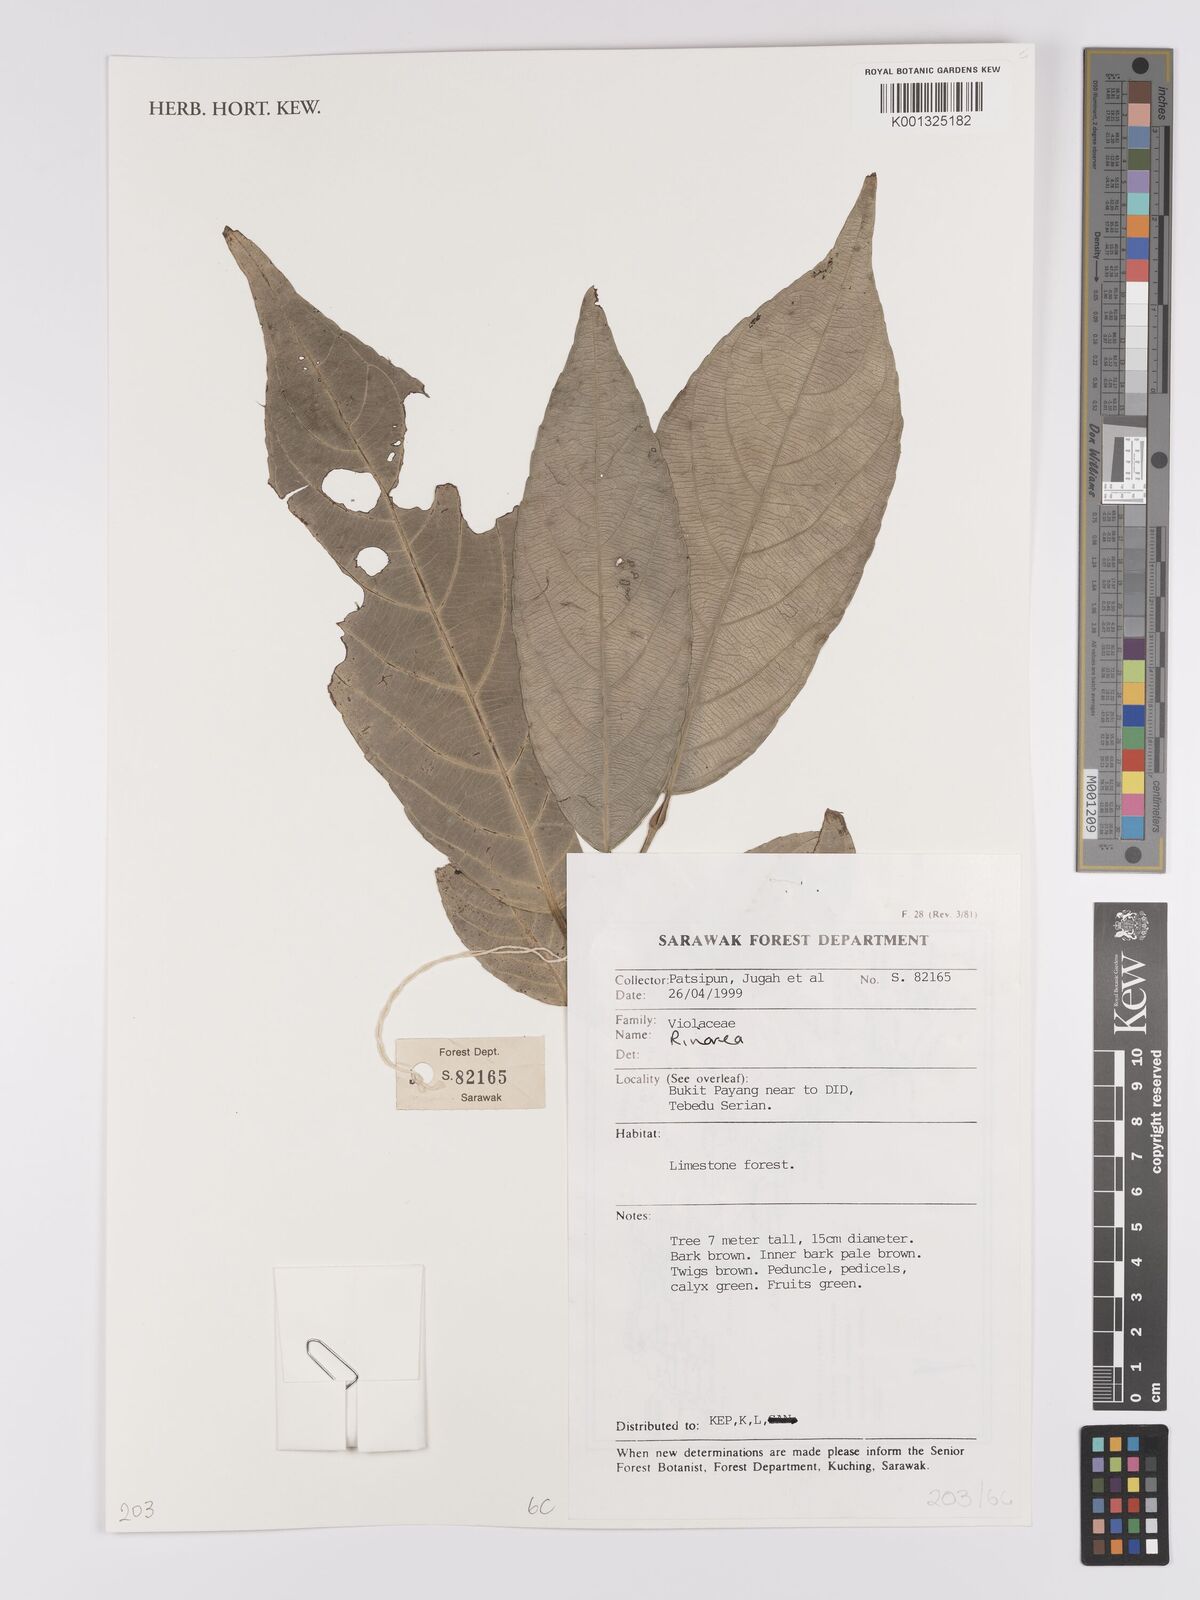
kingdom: Plantae
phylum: Tracheophyta
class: Magnoliopsida
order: Malpighiales
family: Violaceae
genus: Rinorea
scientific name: Rinorea
